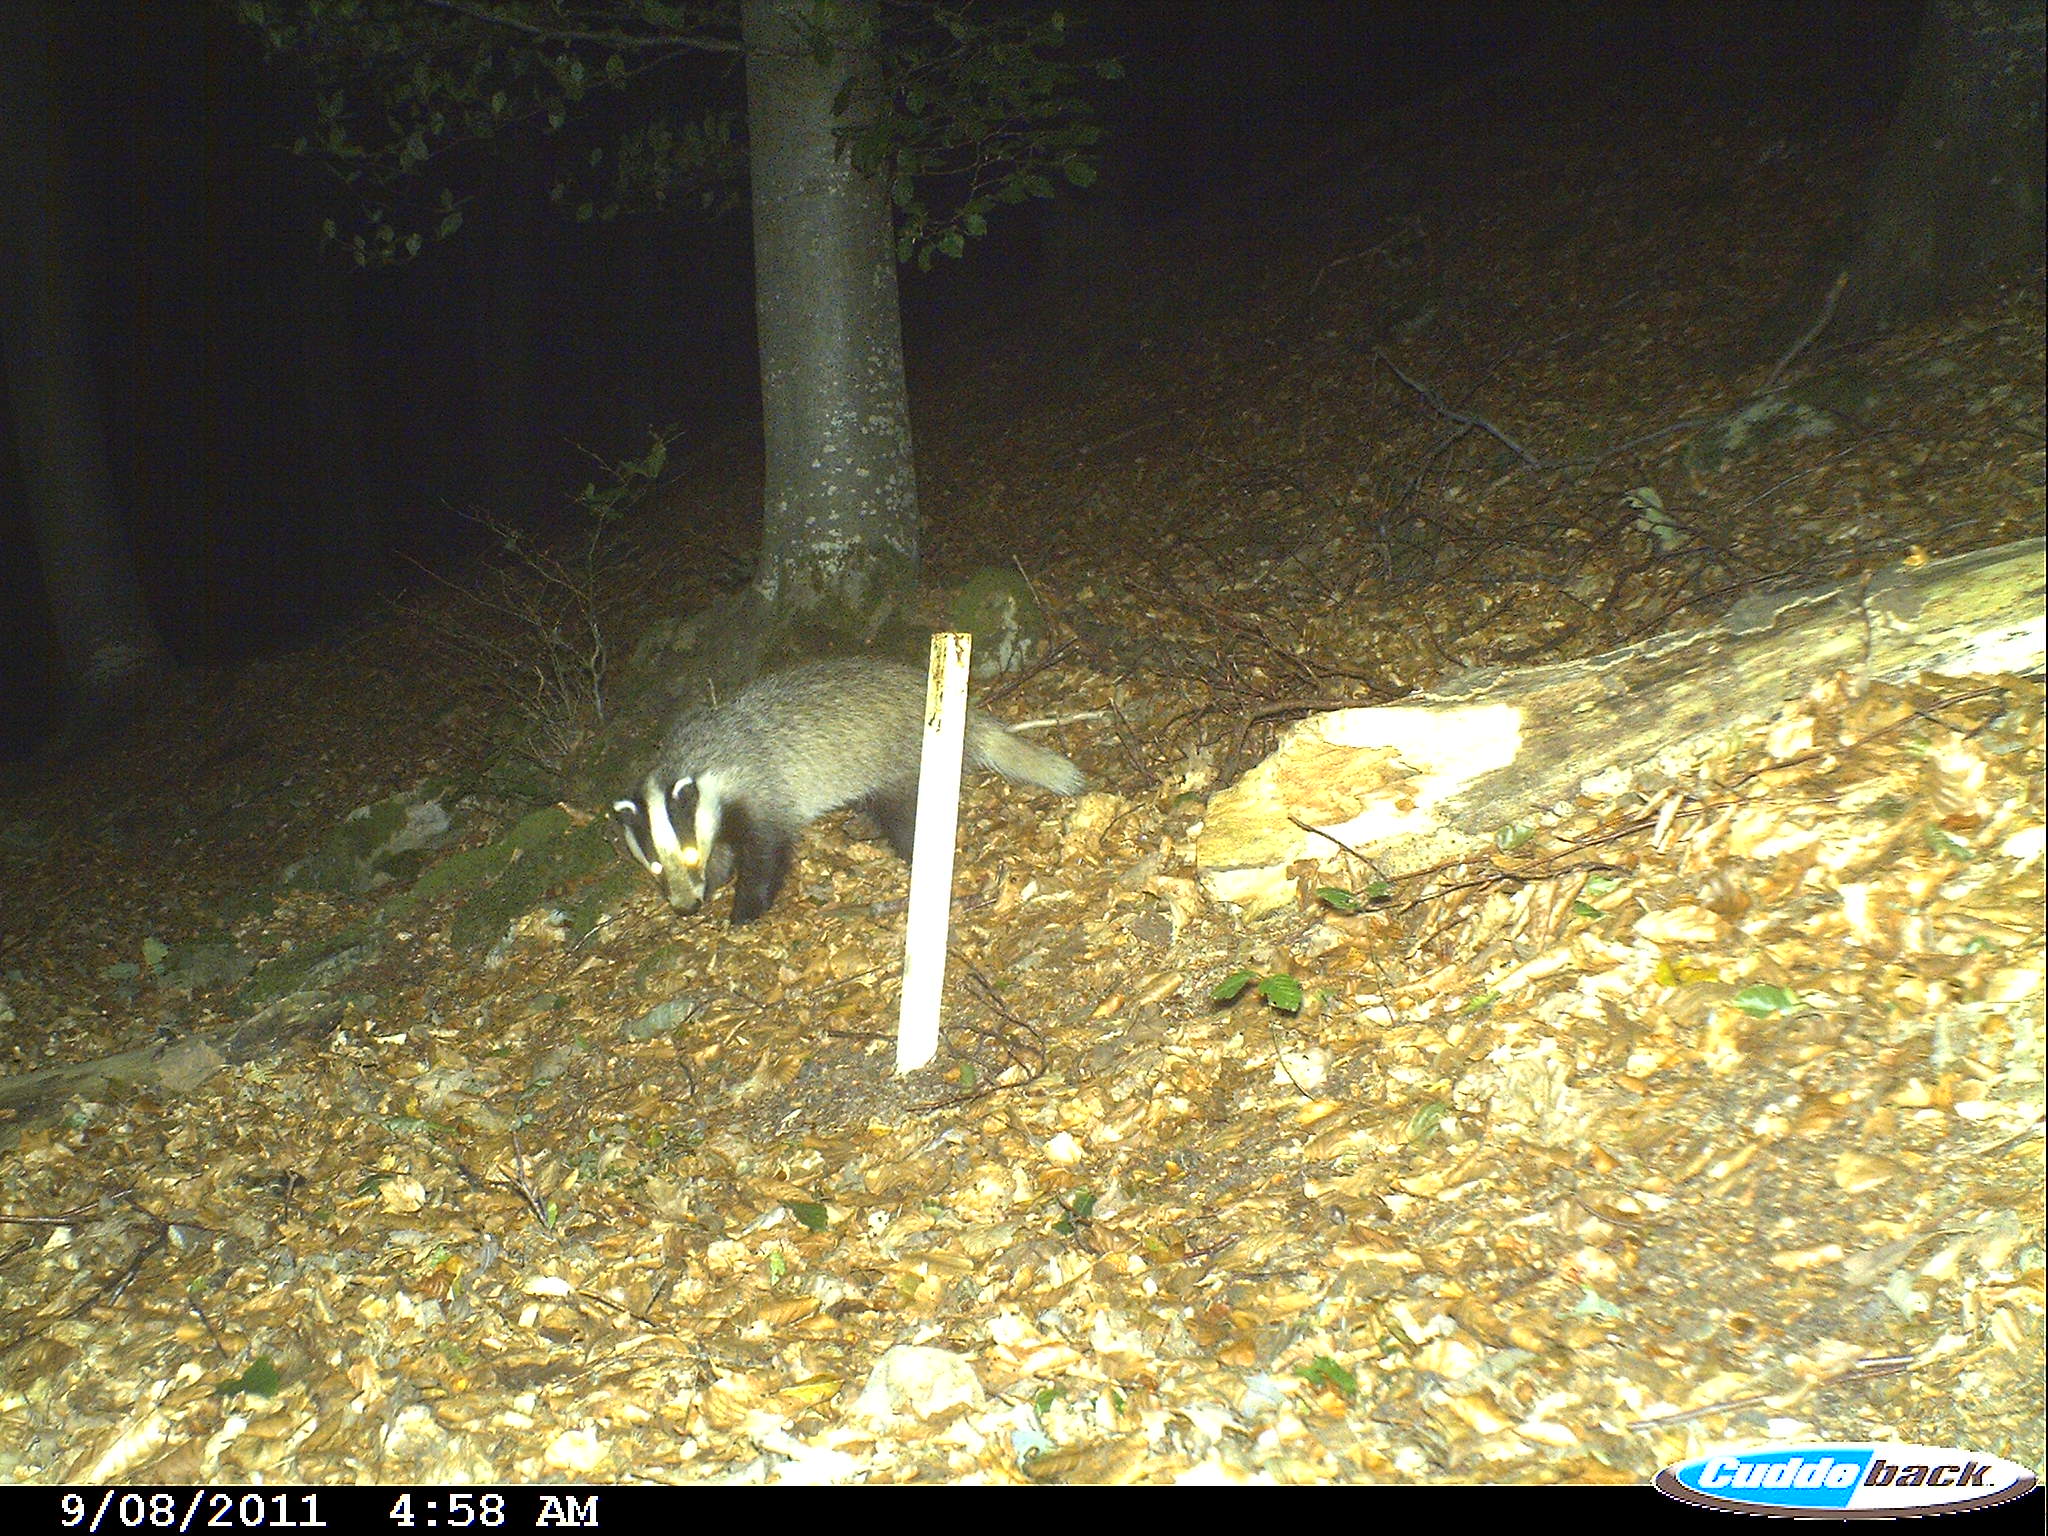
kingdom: Animalia
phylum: Chordata
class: Mammalia
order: Carnivora
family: Mustelidae
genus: Meles
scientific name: Meles meles
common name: Eurasian badger
